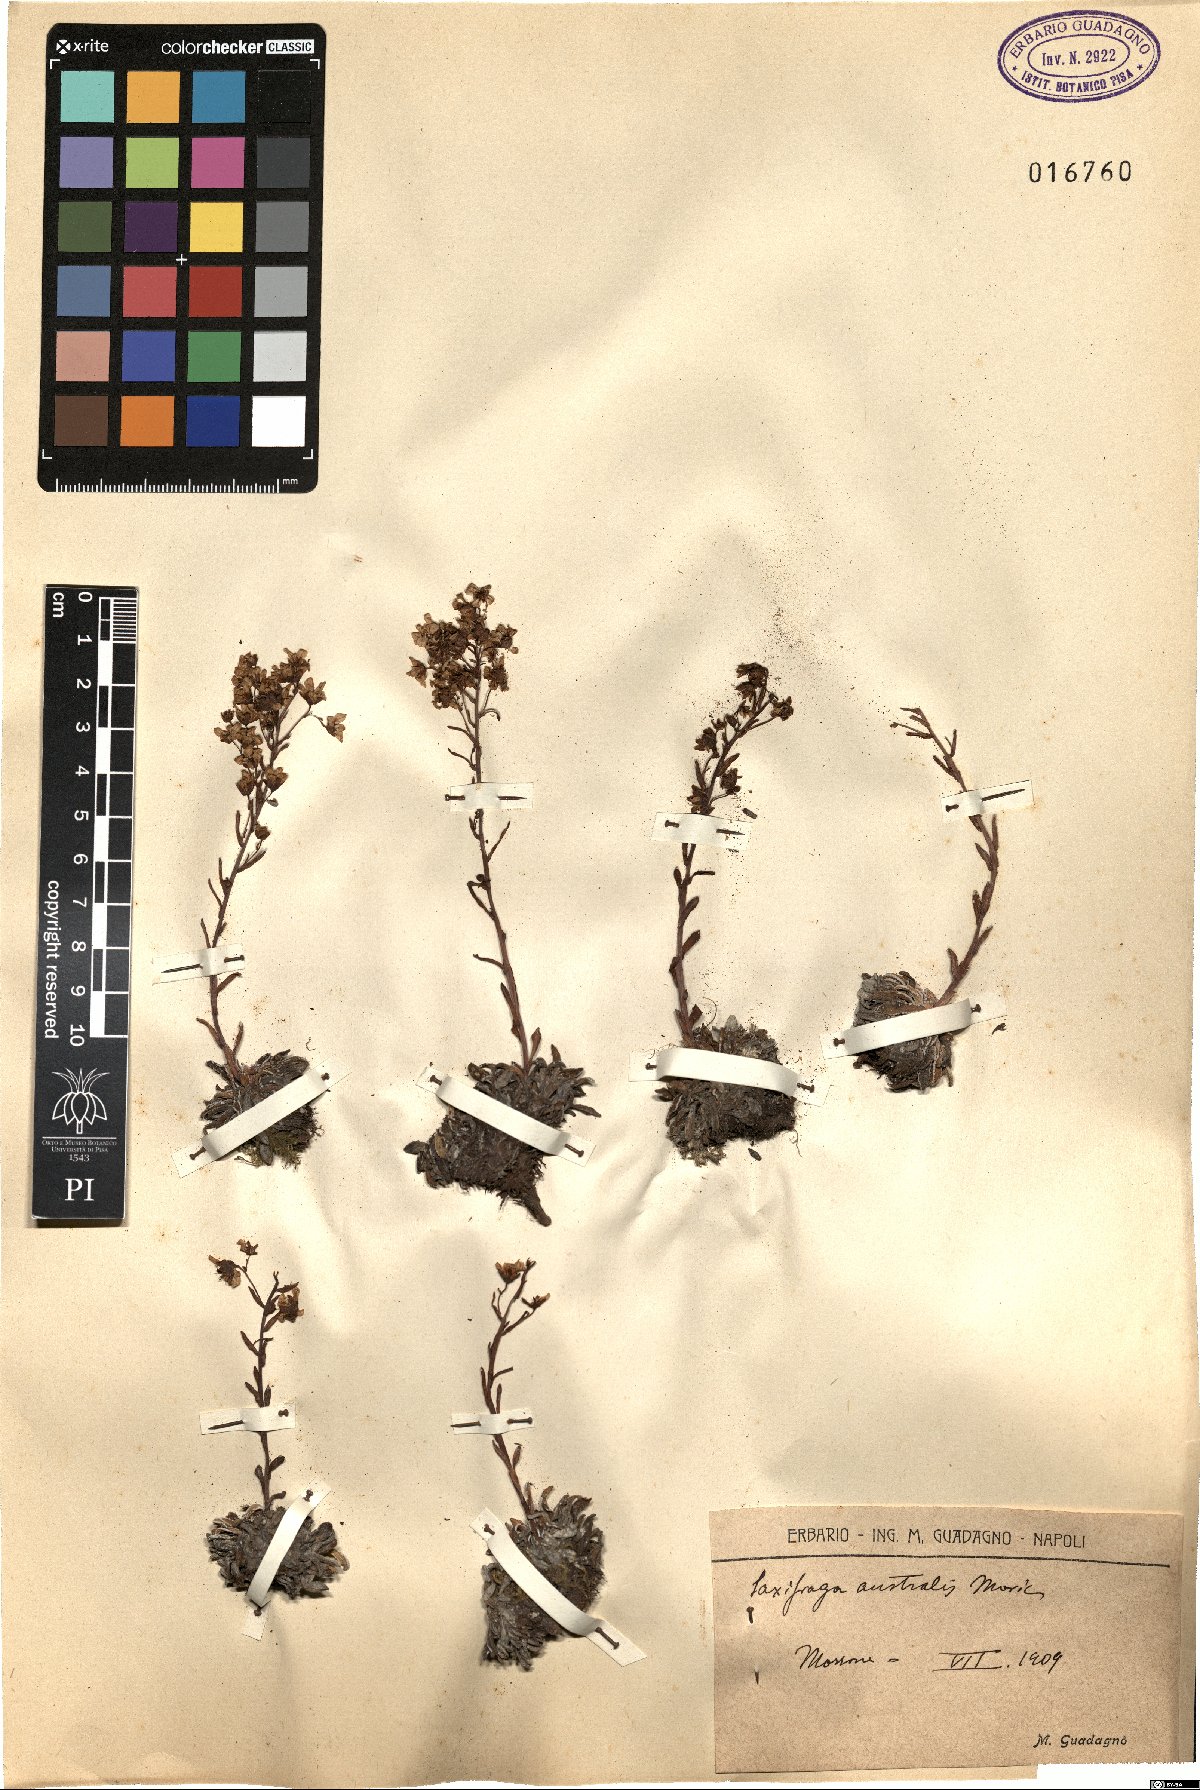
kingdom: Plantae
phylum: Tracheophyta
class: Magnoliopsida
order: Saxifragales
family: Saxifragaceae
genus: Saxifraga
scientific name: Saxifraga callosa
